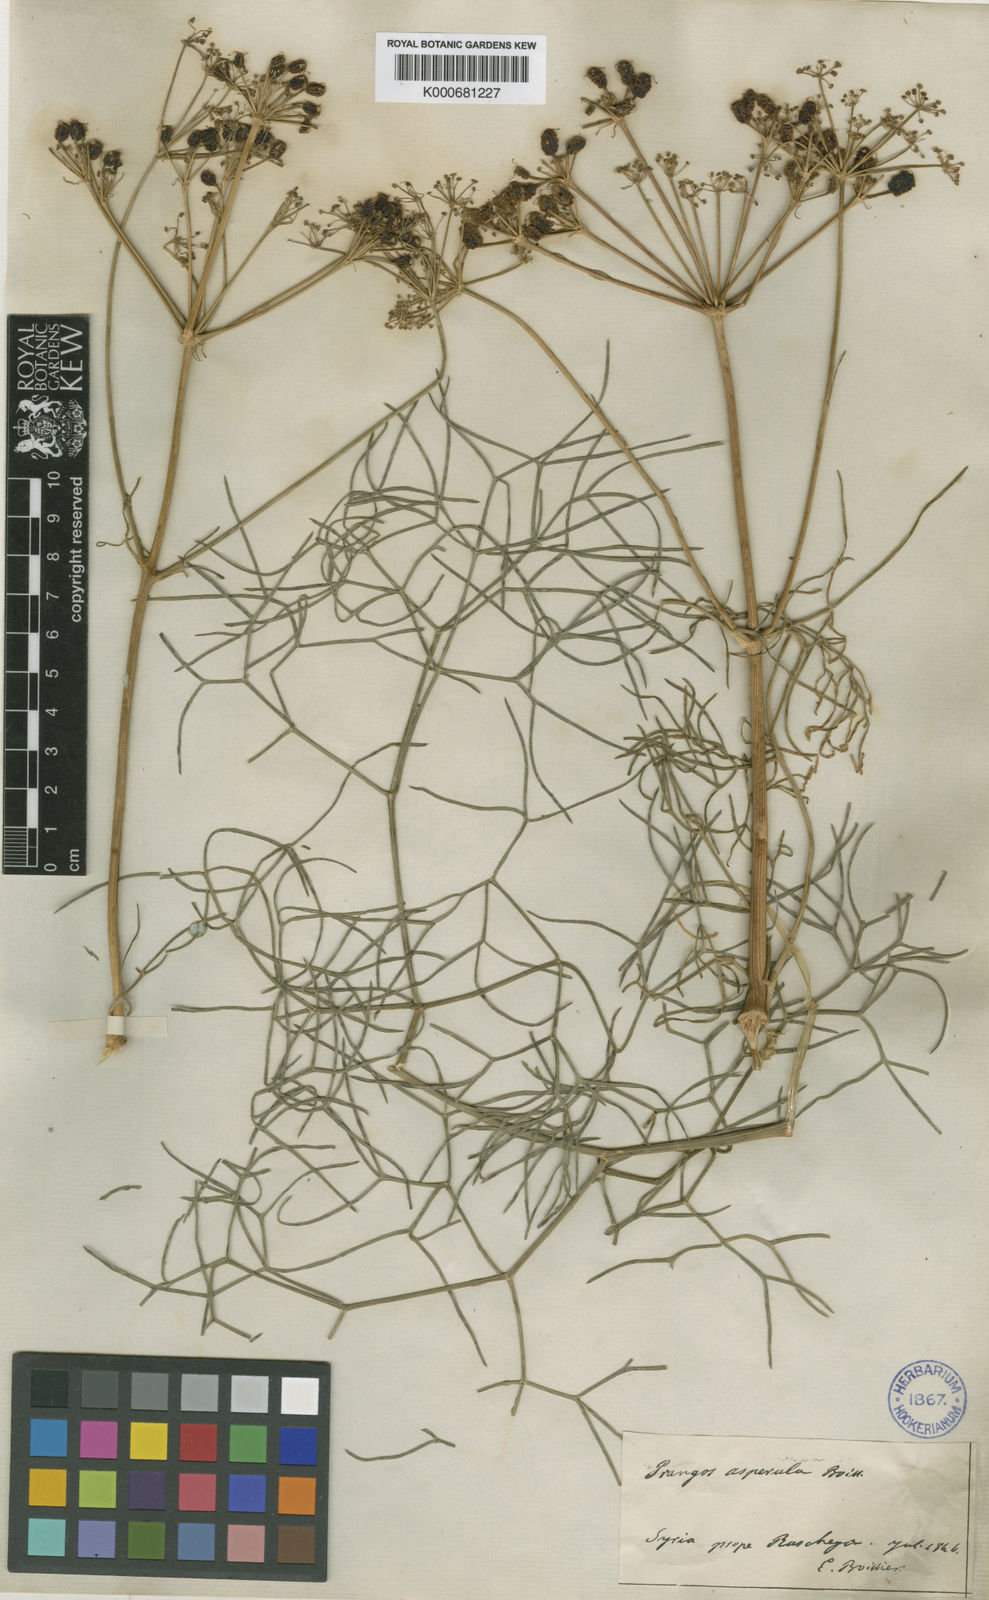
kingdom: Plantae
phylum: Tracheophyta
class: Magnoliopsida
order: Apiales
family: Apiaceae
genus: Prangos
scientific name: Prangos asperula
